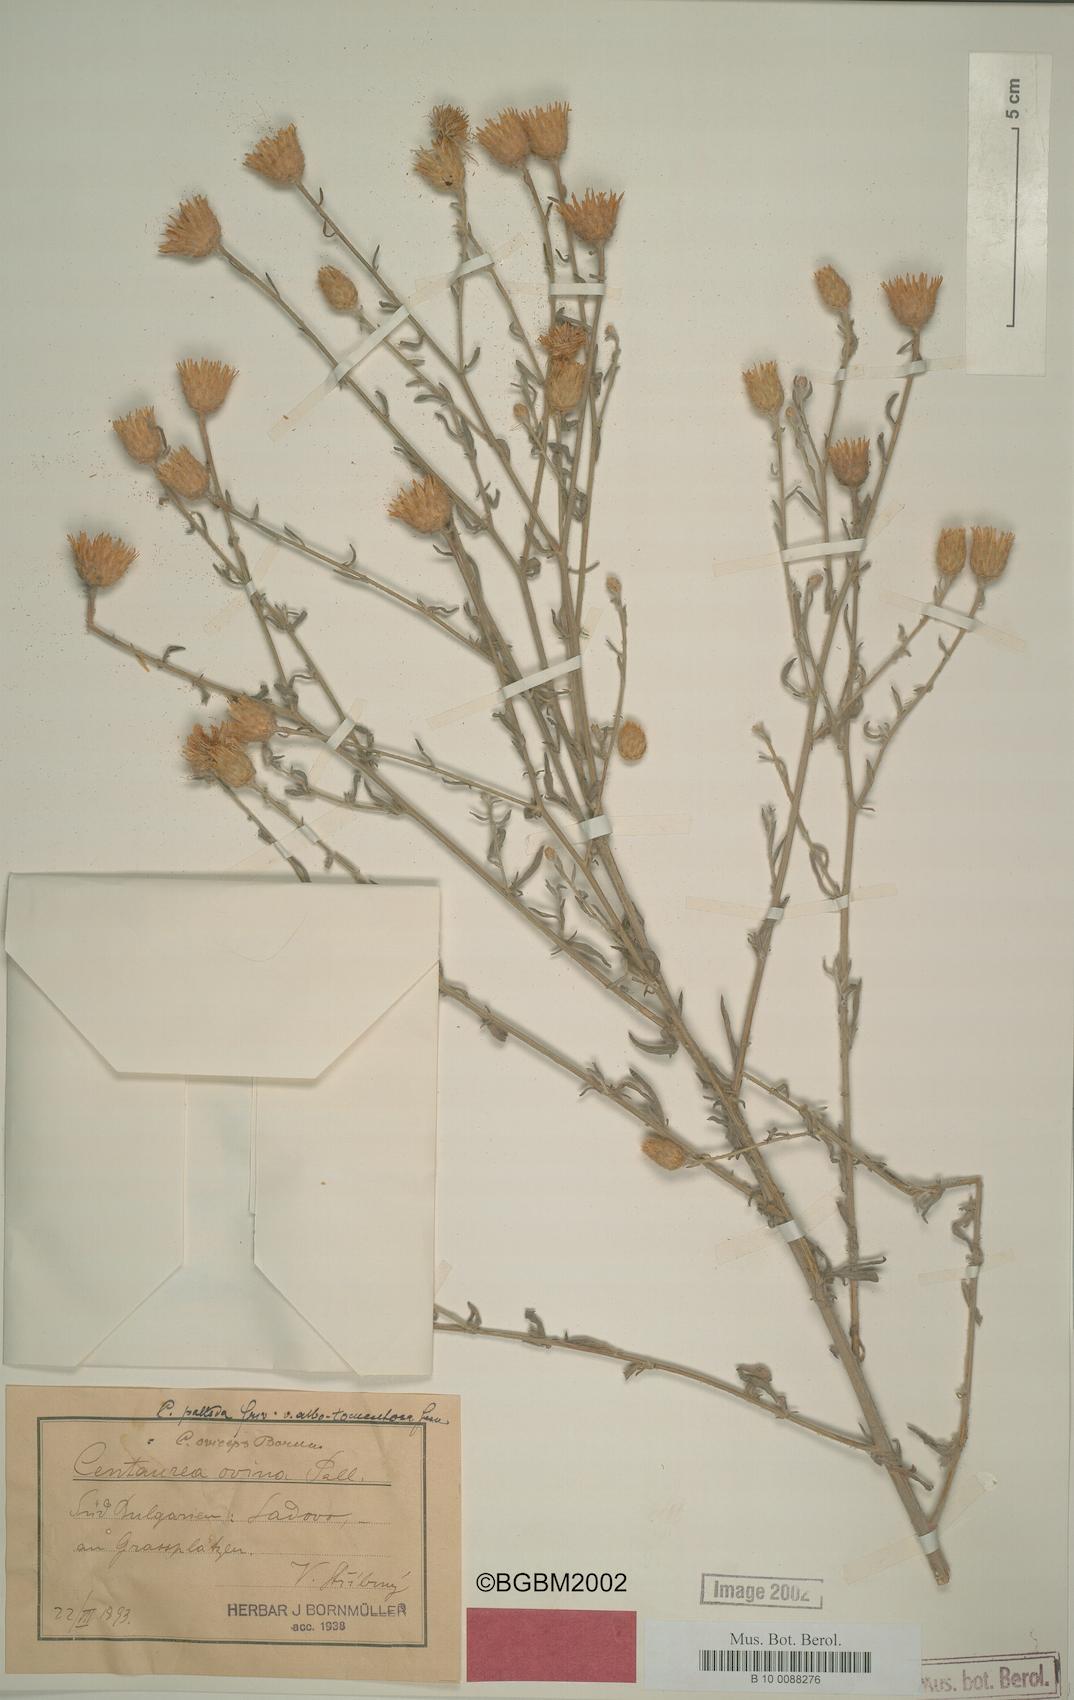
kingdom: Plantae
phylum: Tracheophyta
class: Magnoliopsida
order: Asterales
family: Asteraceae
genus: Centaurea
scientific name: Centaurea thessala
